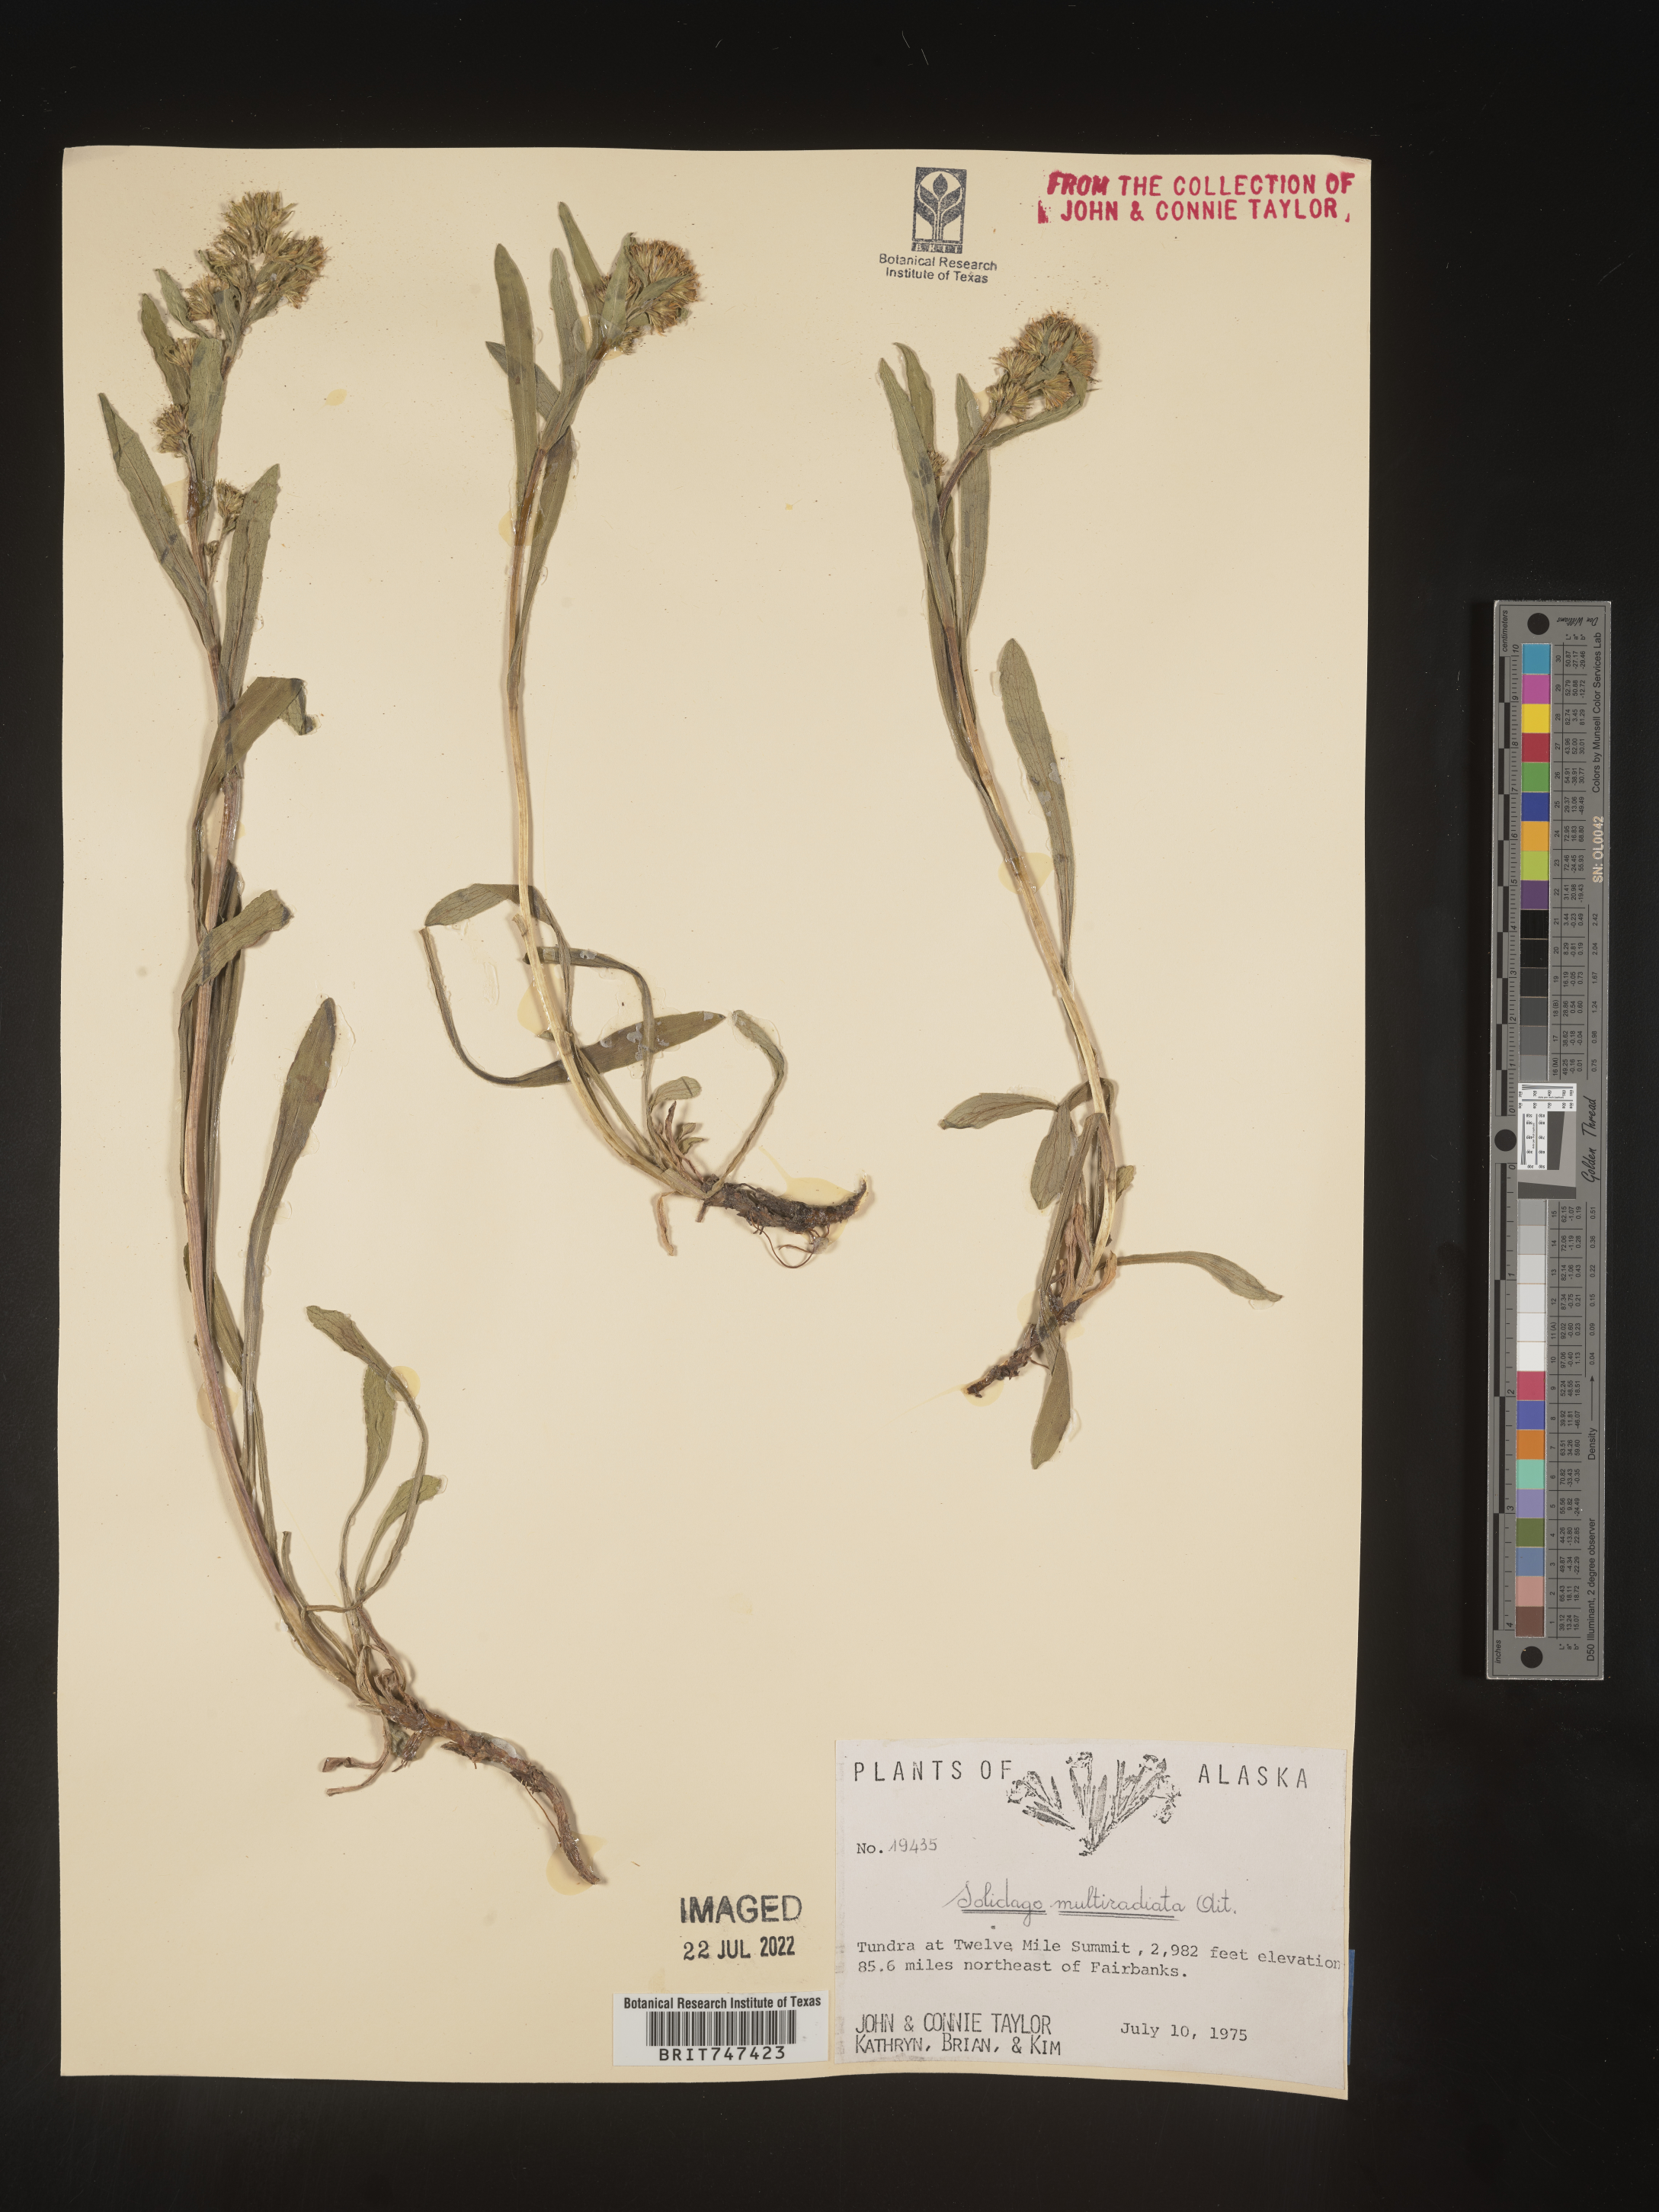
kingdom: Plantae
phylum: Tracheophyta
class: Magnoliopsida
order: Asterales
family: Asteraceae
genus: Solidago
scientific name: Solidago multiradiata
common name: Northern goldenrod
